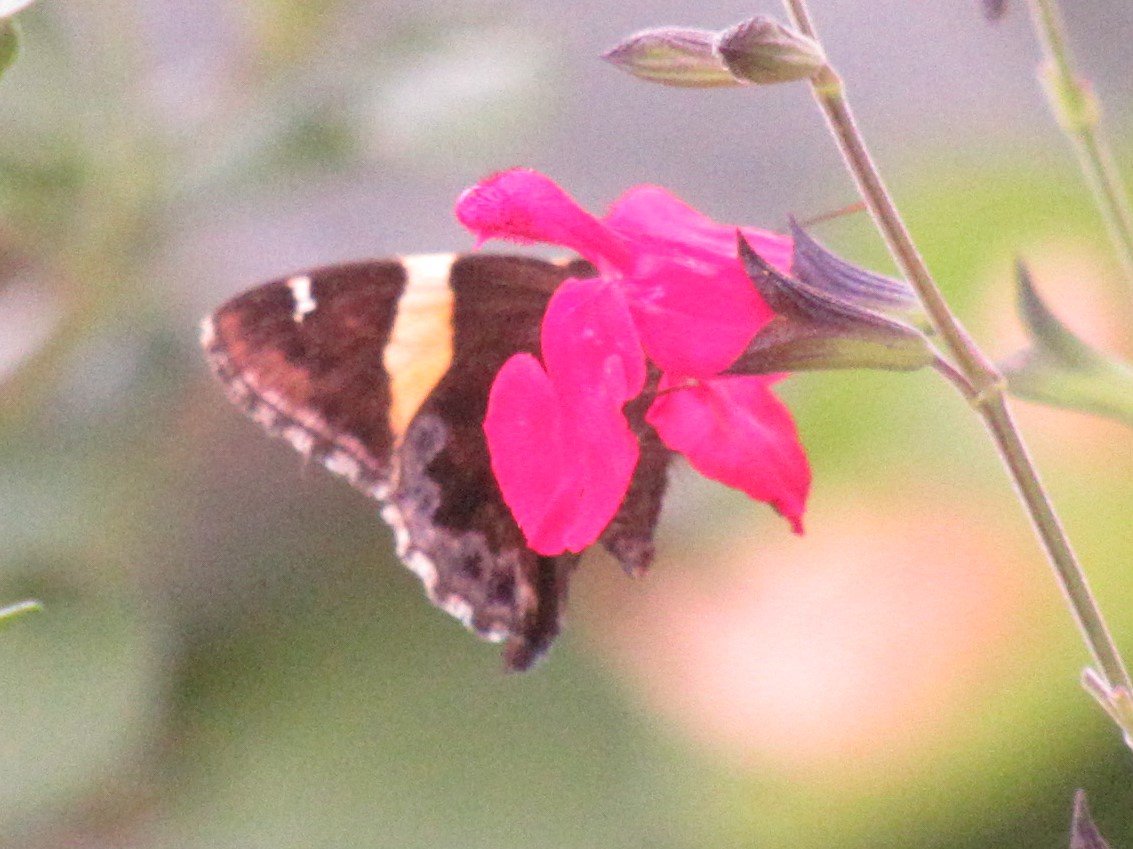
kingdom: Animalia
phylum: Arthropoda
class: Insecta
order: Lepidoptera
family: Hesperiidae
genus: Autochton
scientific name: Autochton cellus
